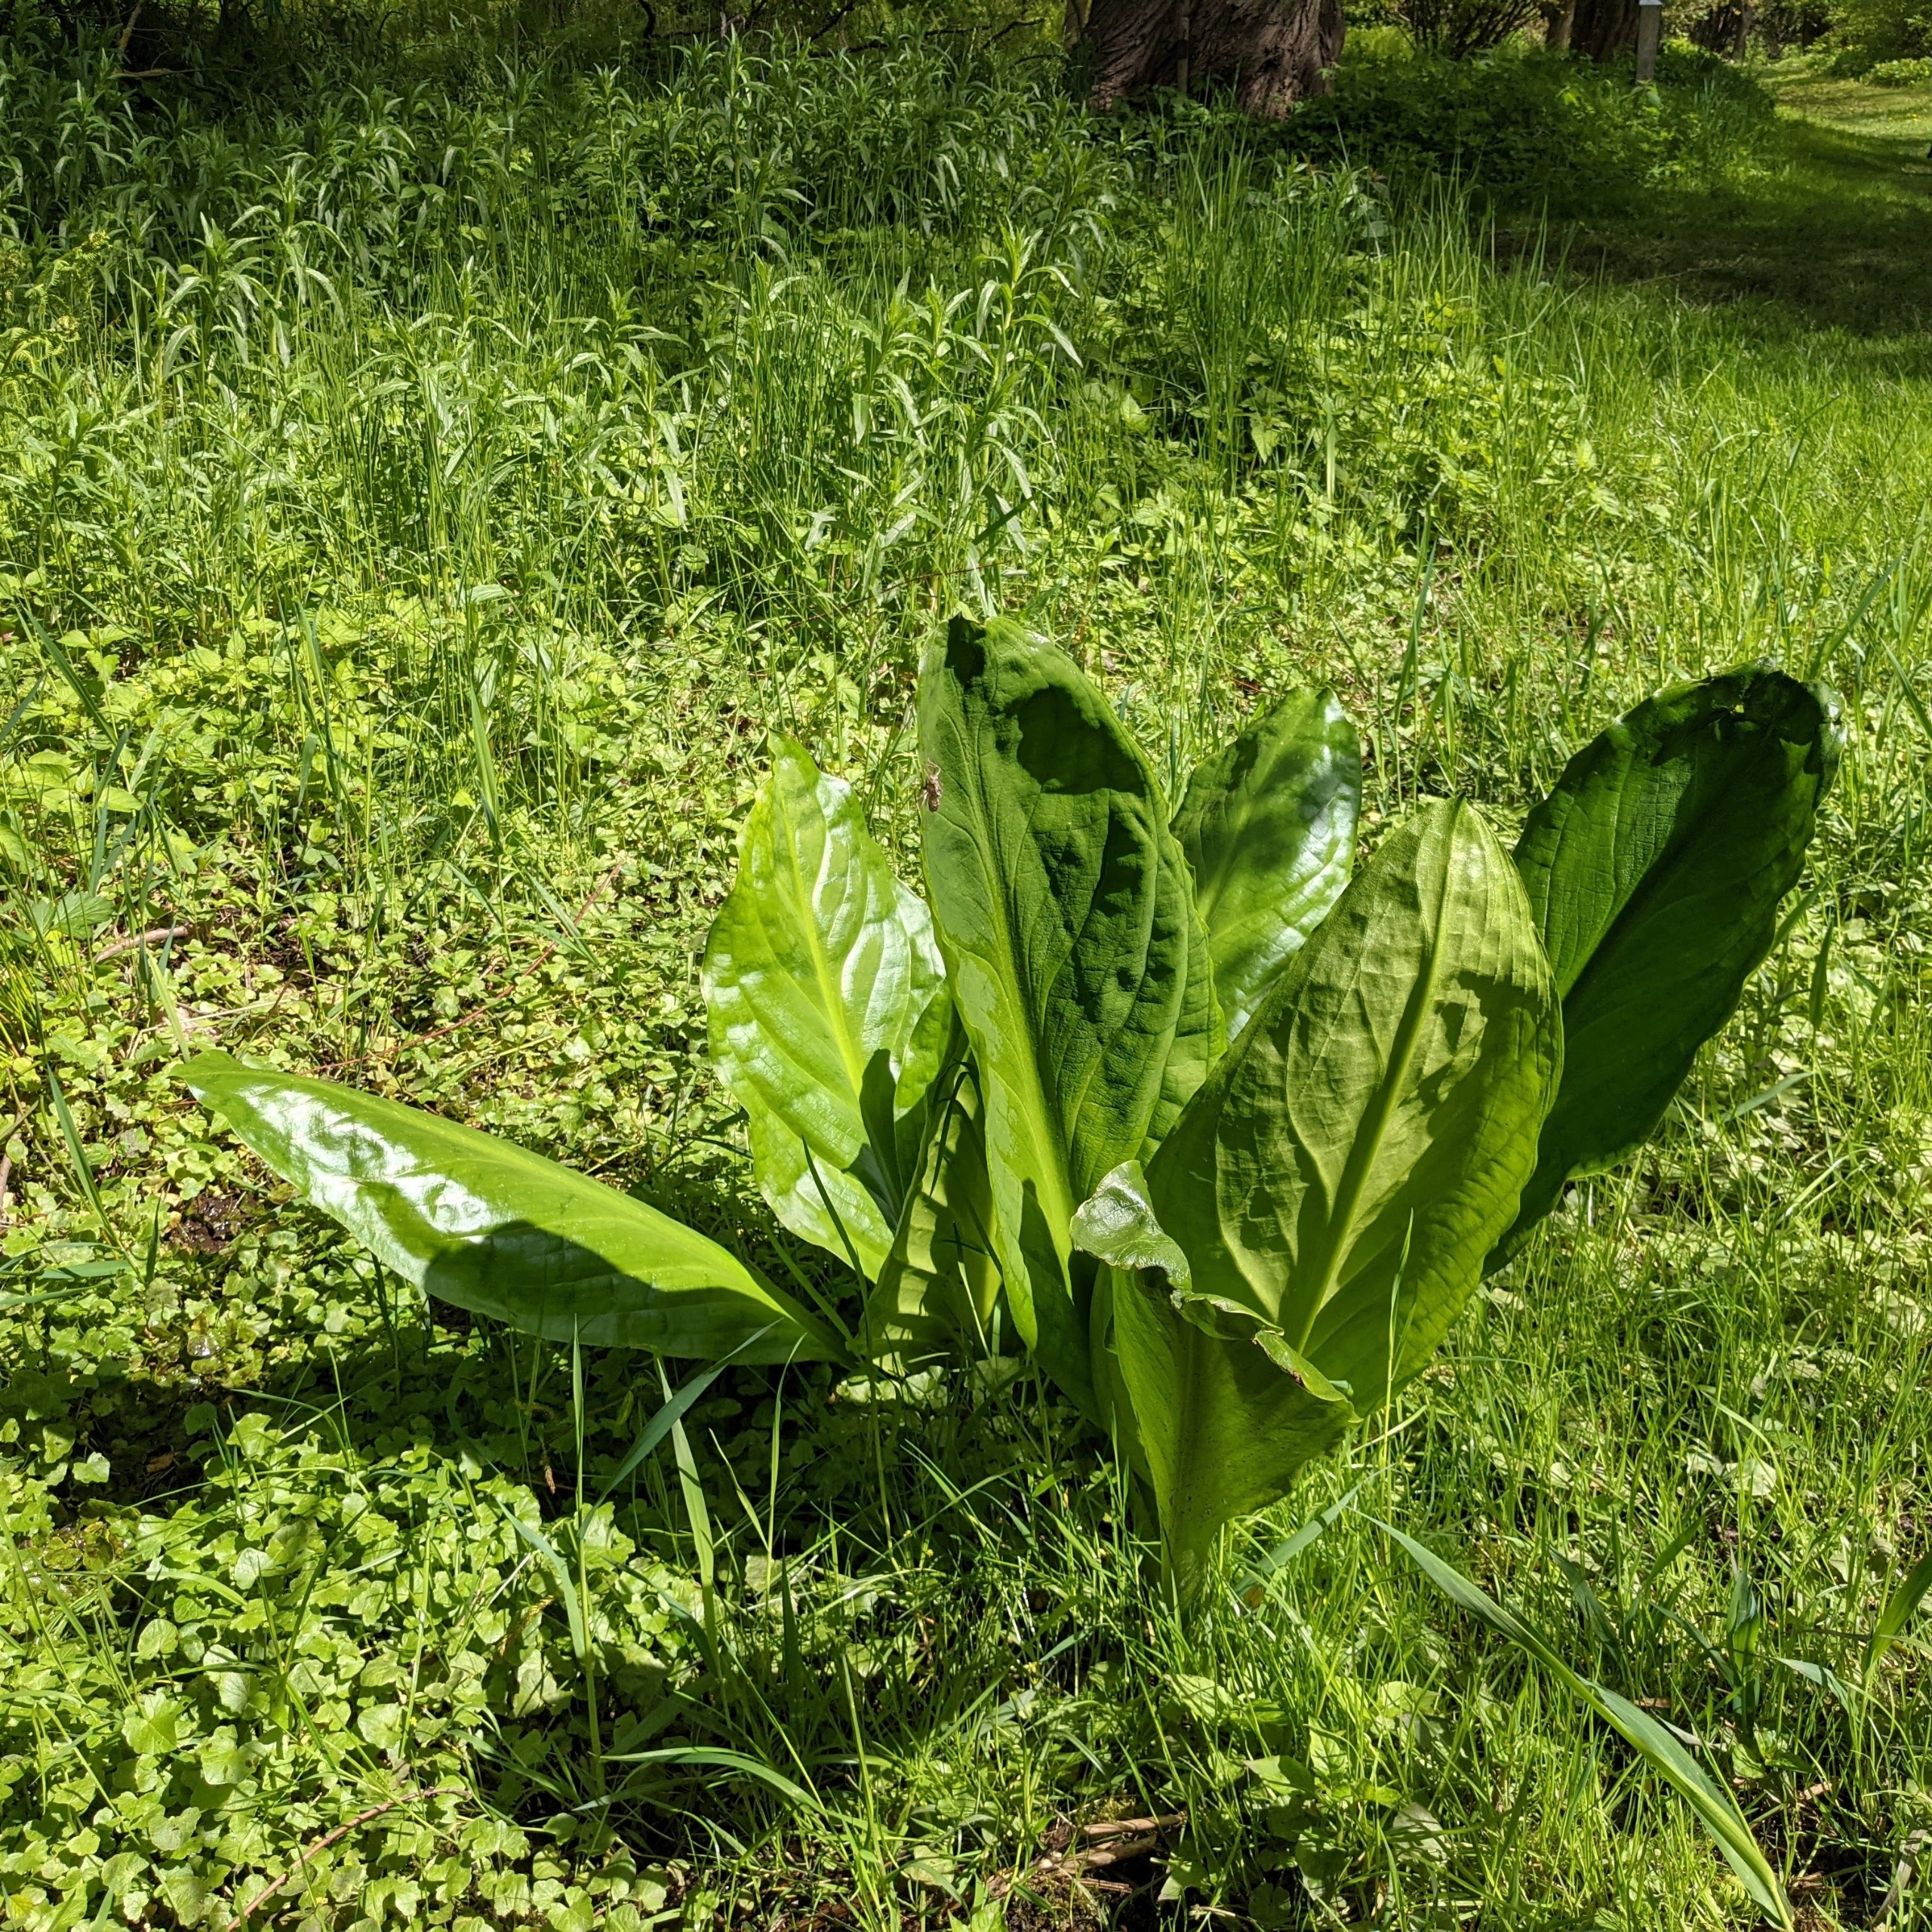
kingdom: Plantae
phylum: Tracheophyta
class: Liliopsida
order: Alismatales
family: Araceae
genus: Lysichiton
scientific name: Lysichiton americanus
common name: Gul kæmpekalla
